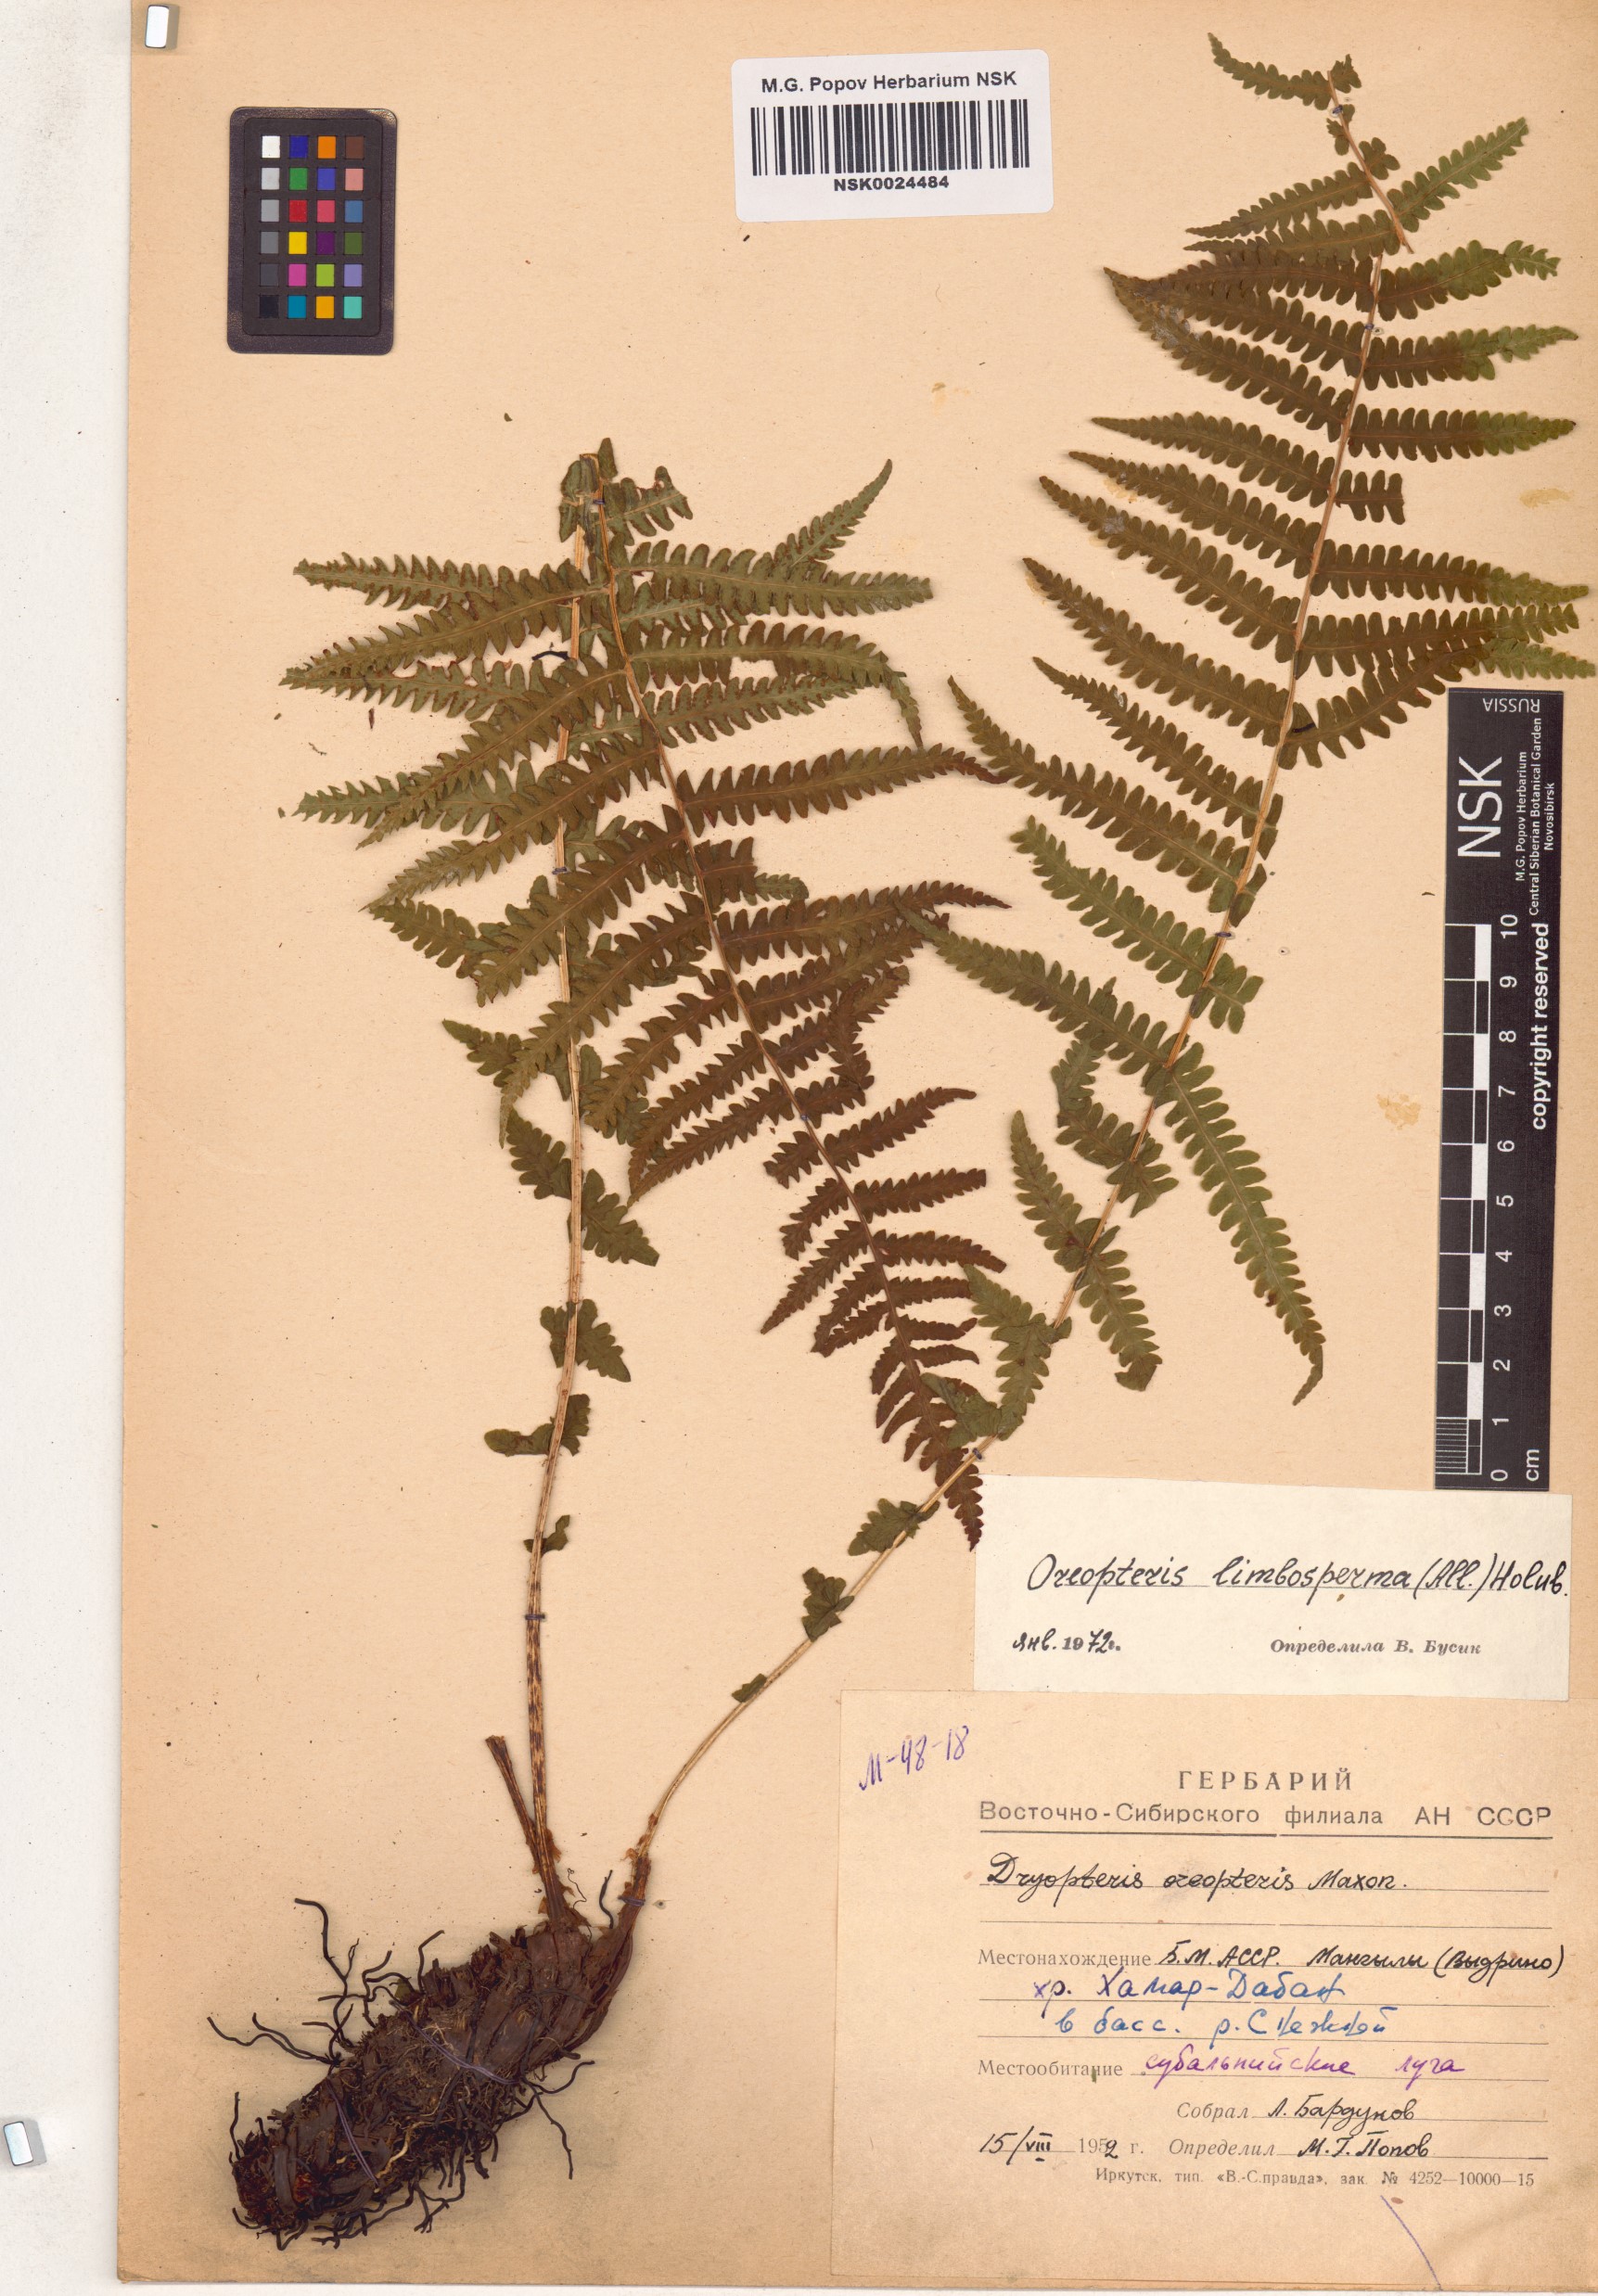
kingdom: Plantae
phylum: Tracheophyta
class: Polypodiopsida
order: Polypodiales
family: Thelypteridaceae
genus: Oreopteris
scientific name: Oreopteris limbosperma
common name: Lemon-scented fern
